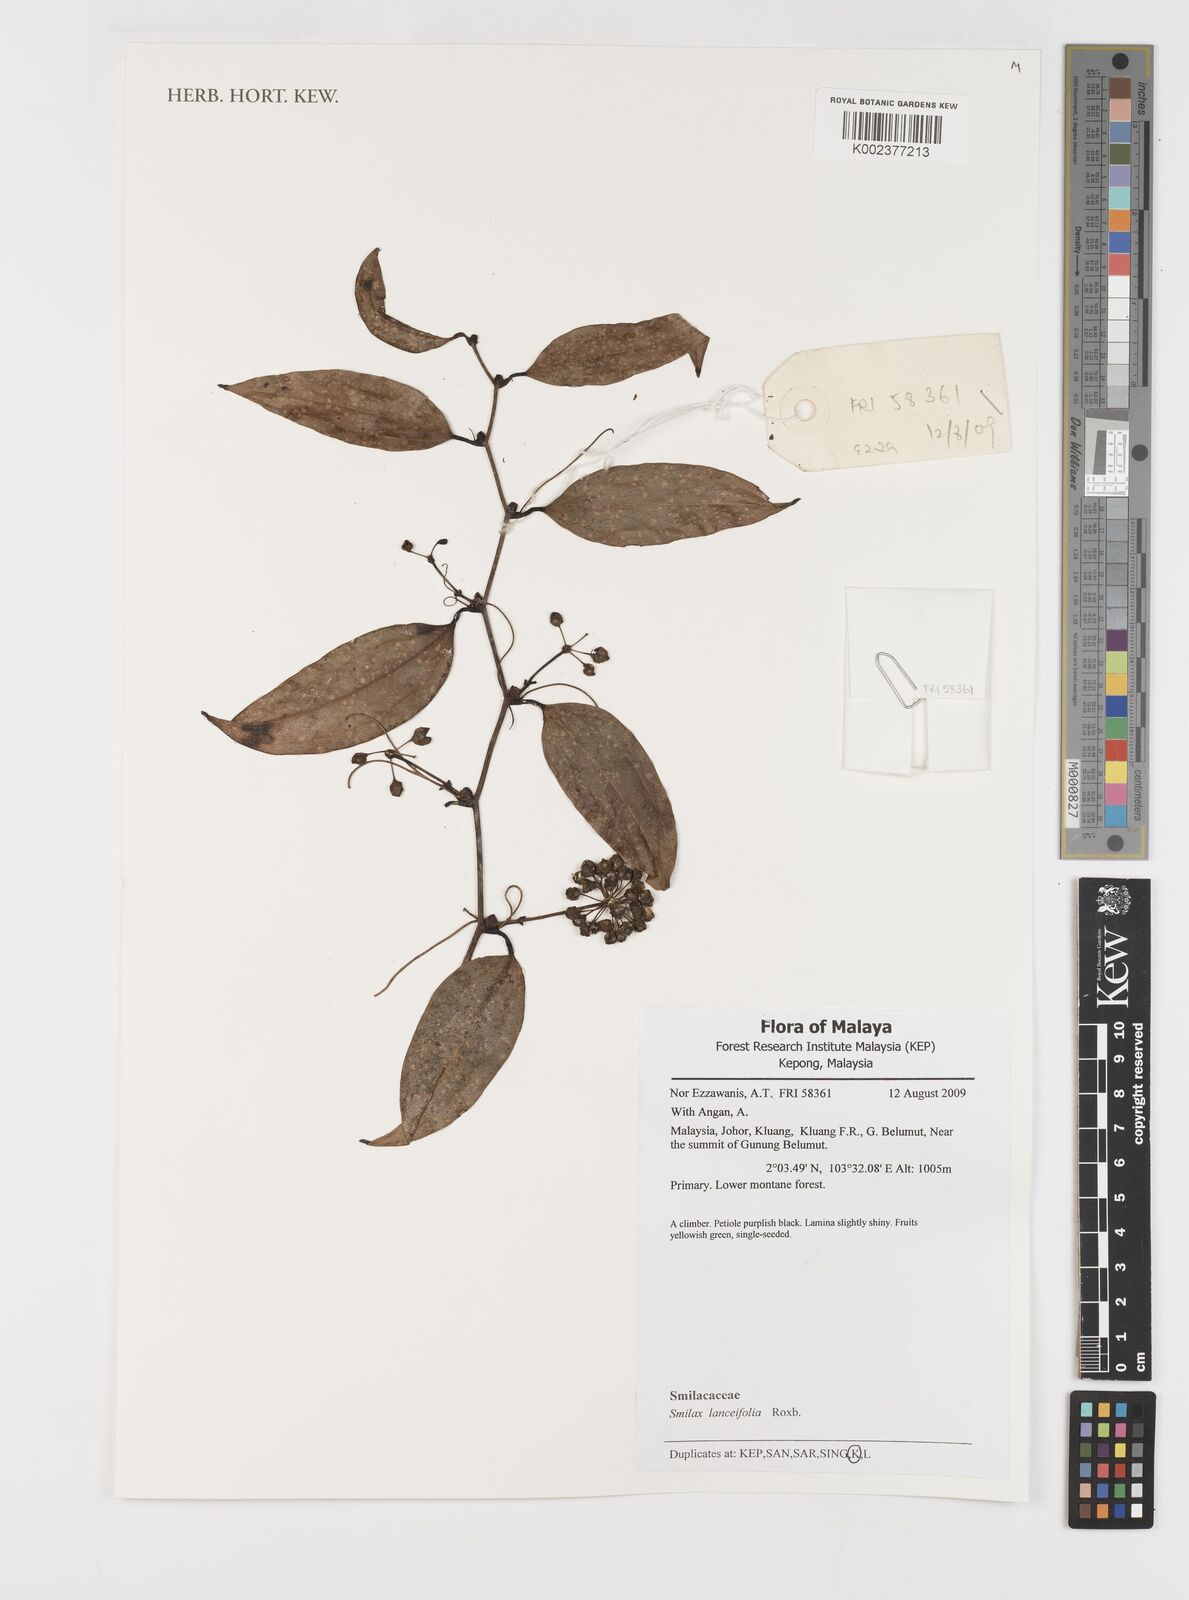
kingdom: Plantae
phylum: Tracheophyta
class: Liliopsida
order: Liliales
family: Smilacaceae
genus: Smilax
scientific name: Smilax lanceifolia
